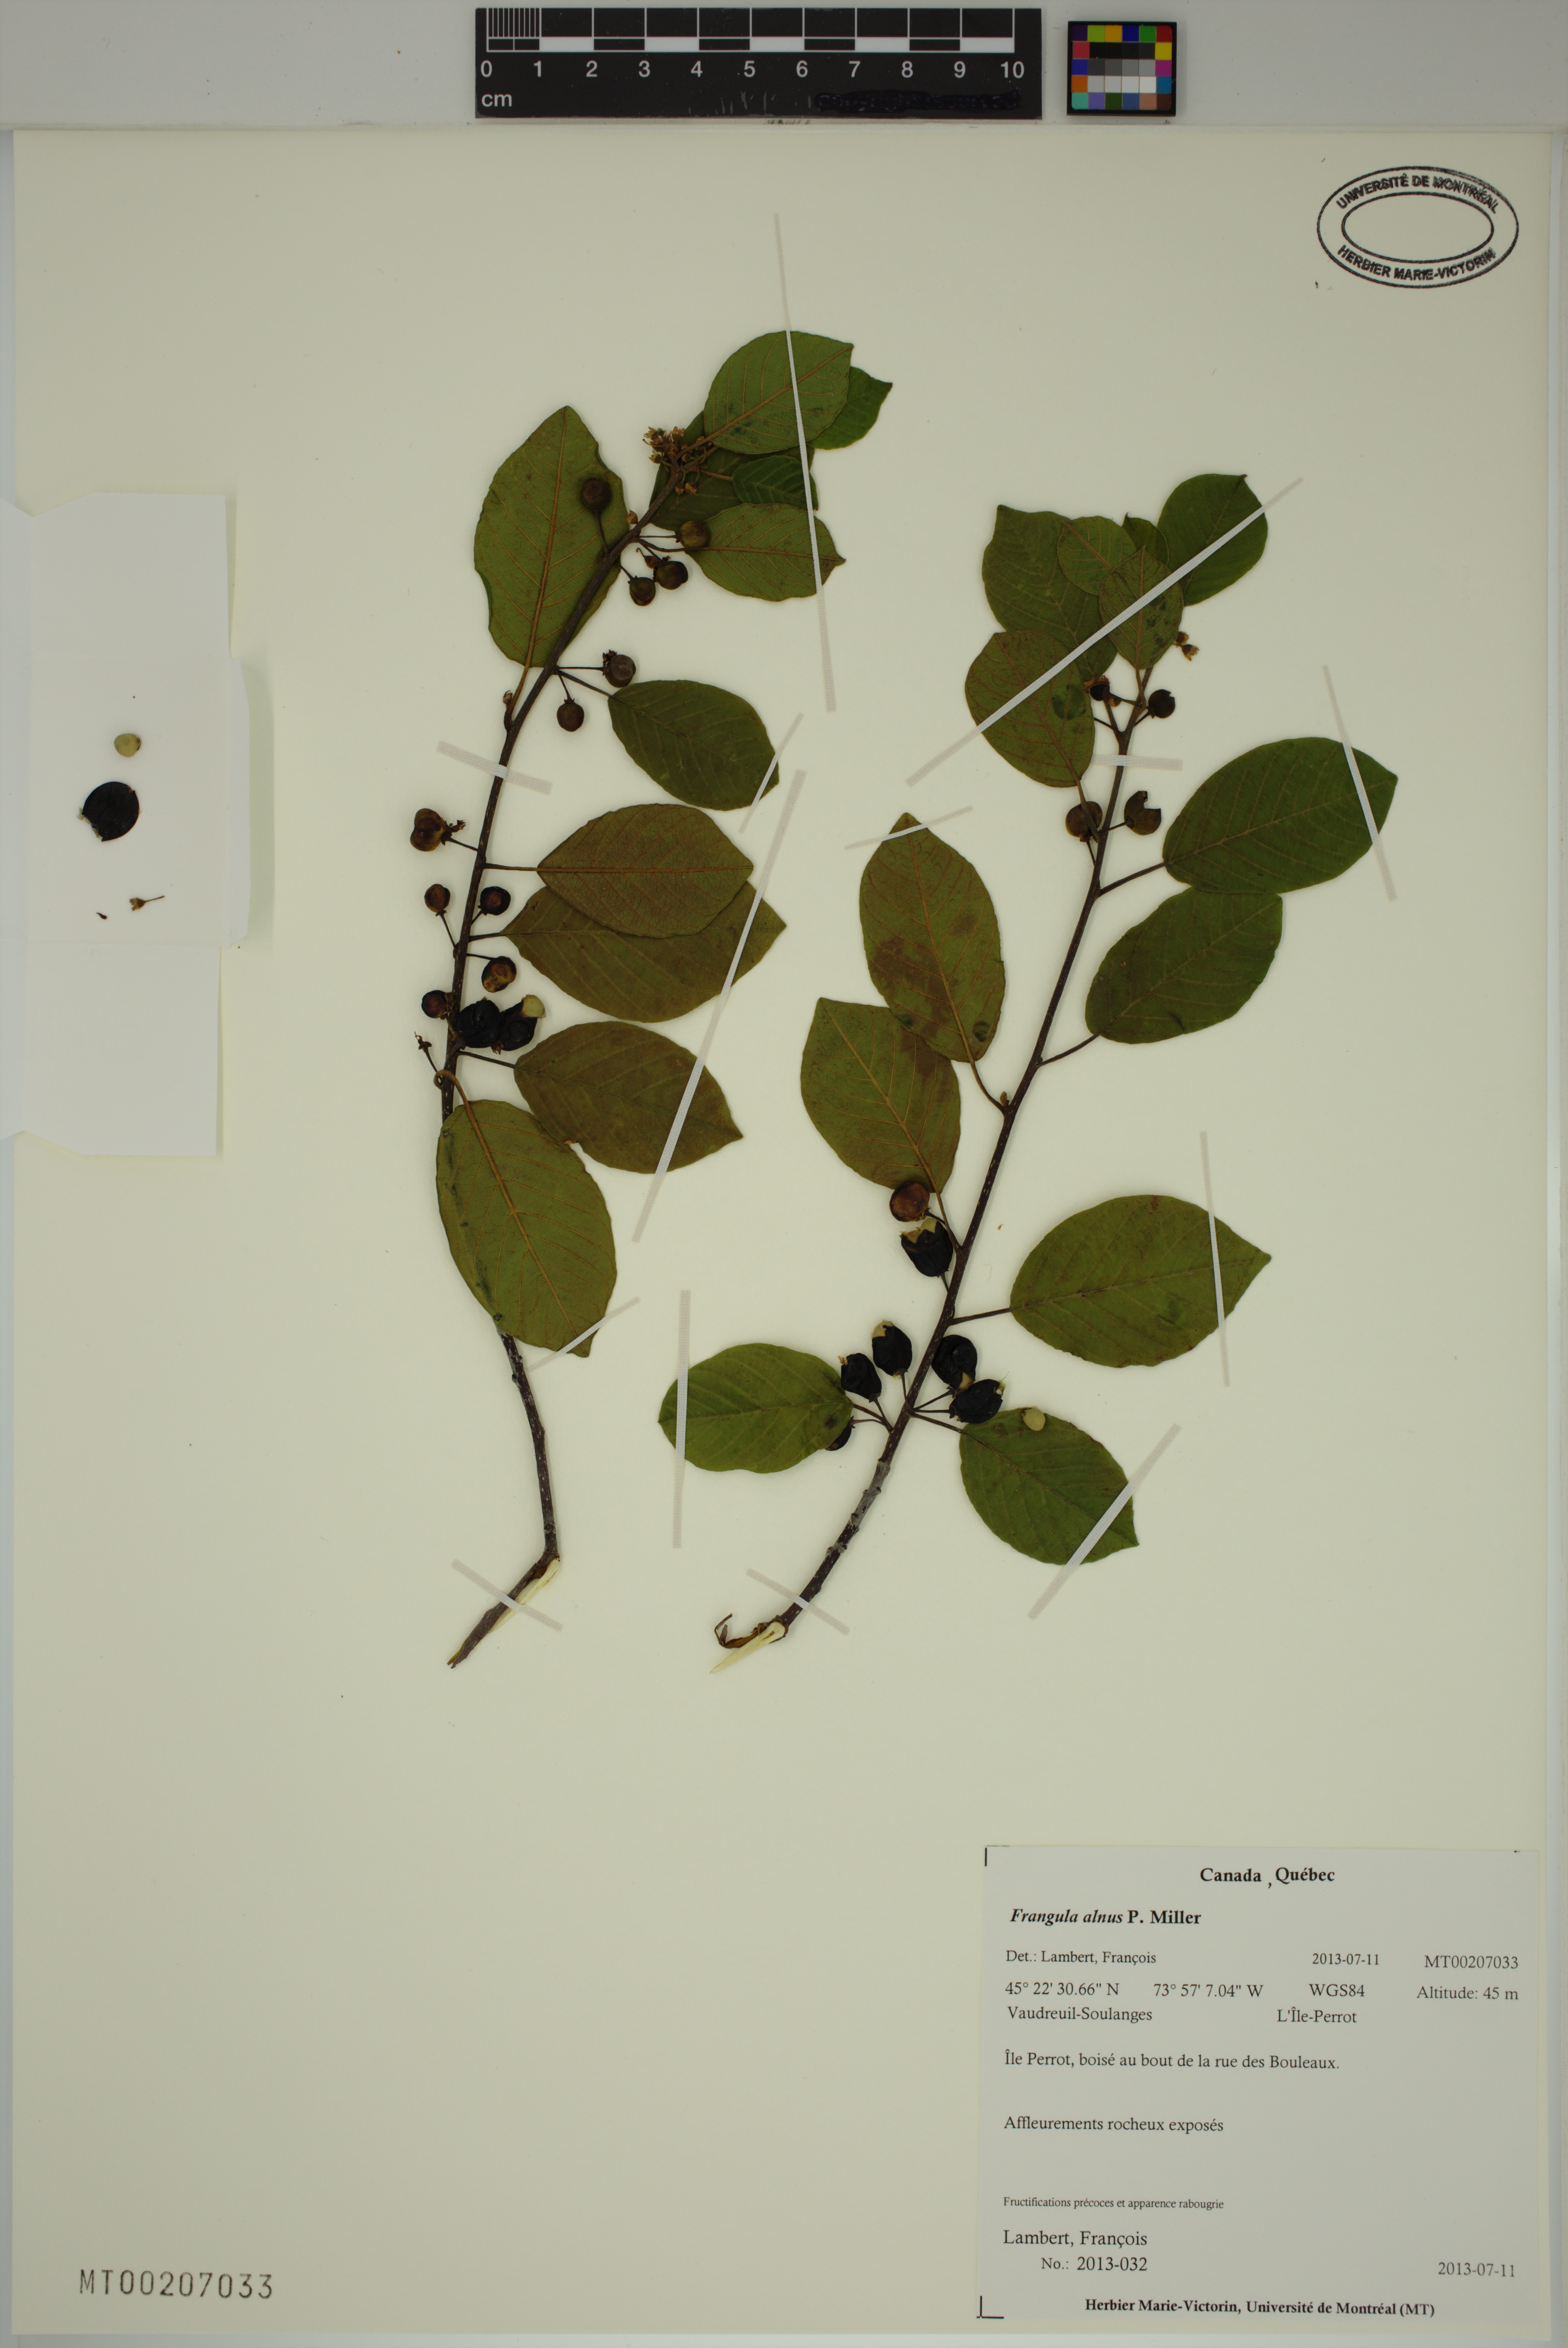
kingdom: Plantae
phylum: Tracheophyta
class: Magnoliopsida
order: Rosales
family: Rhamnaceae
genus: Frangula
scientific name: Frangula alnus
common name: Alder buckthorn
